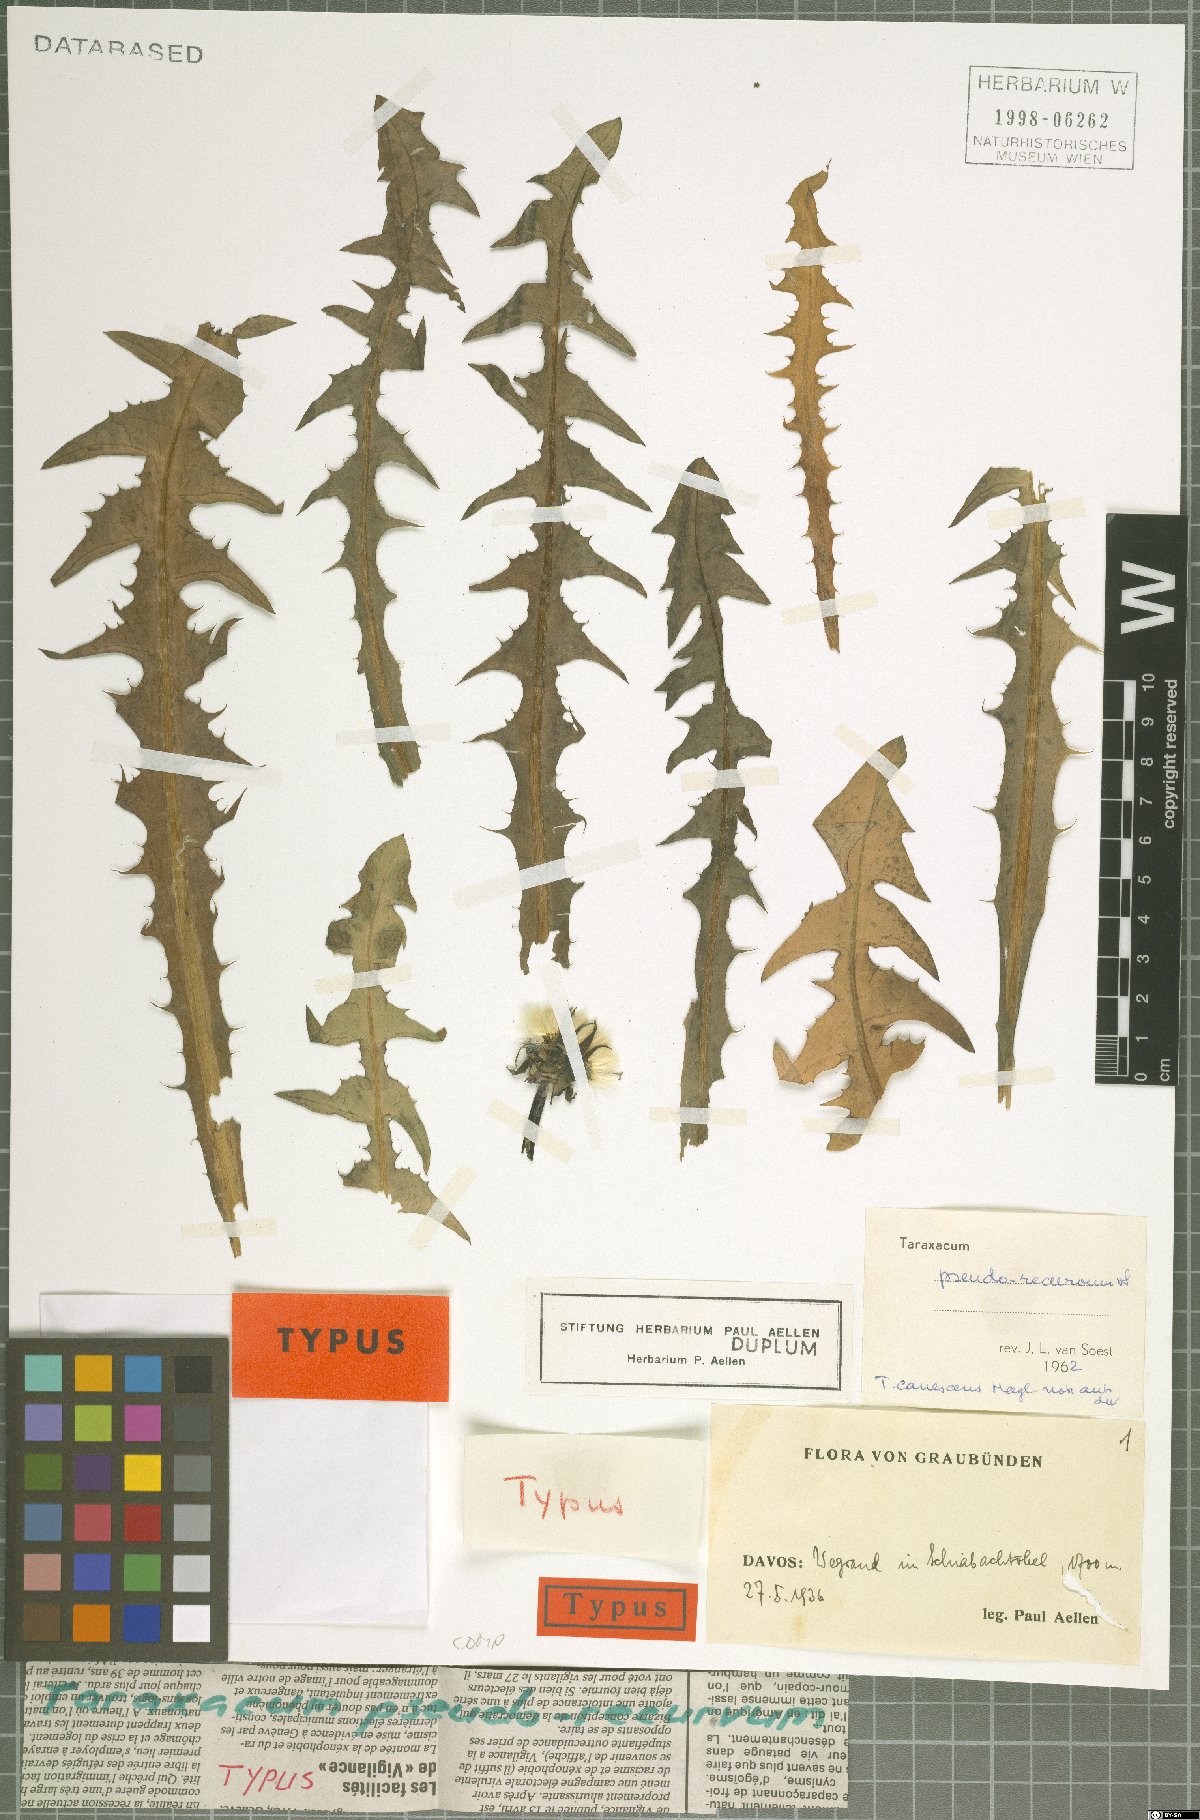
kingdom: Plantae
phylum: Tracheophyta
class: Magnoliopsida
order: Asterales
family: Asteraceae
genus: Taraxacum
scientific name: Taraxacum pseudorecurvum
